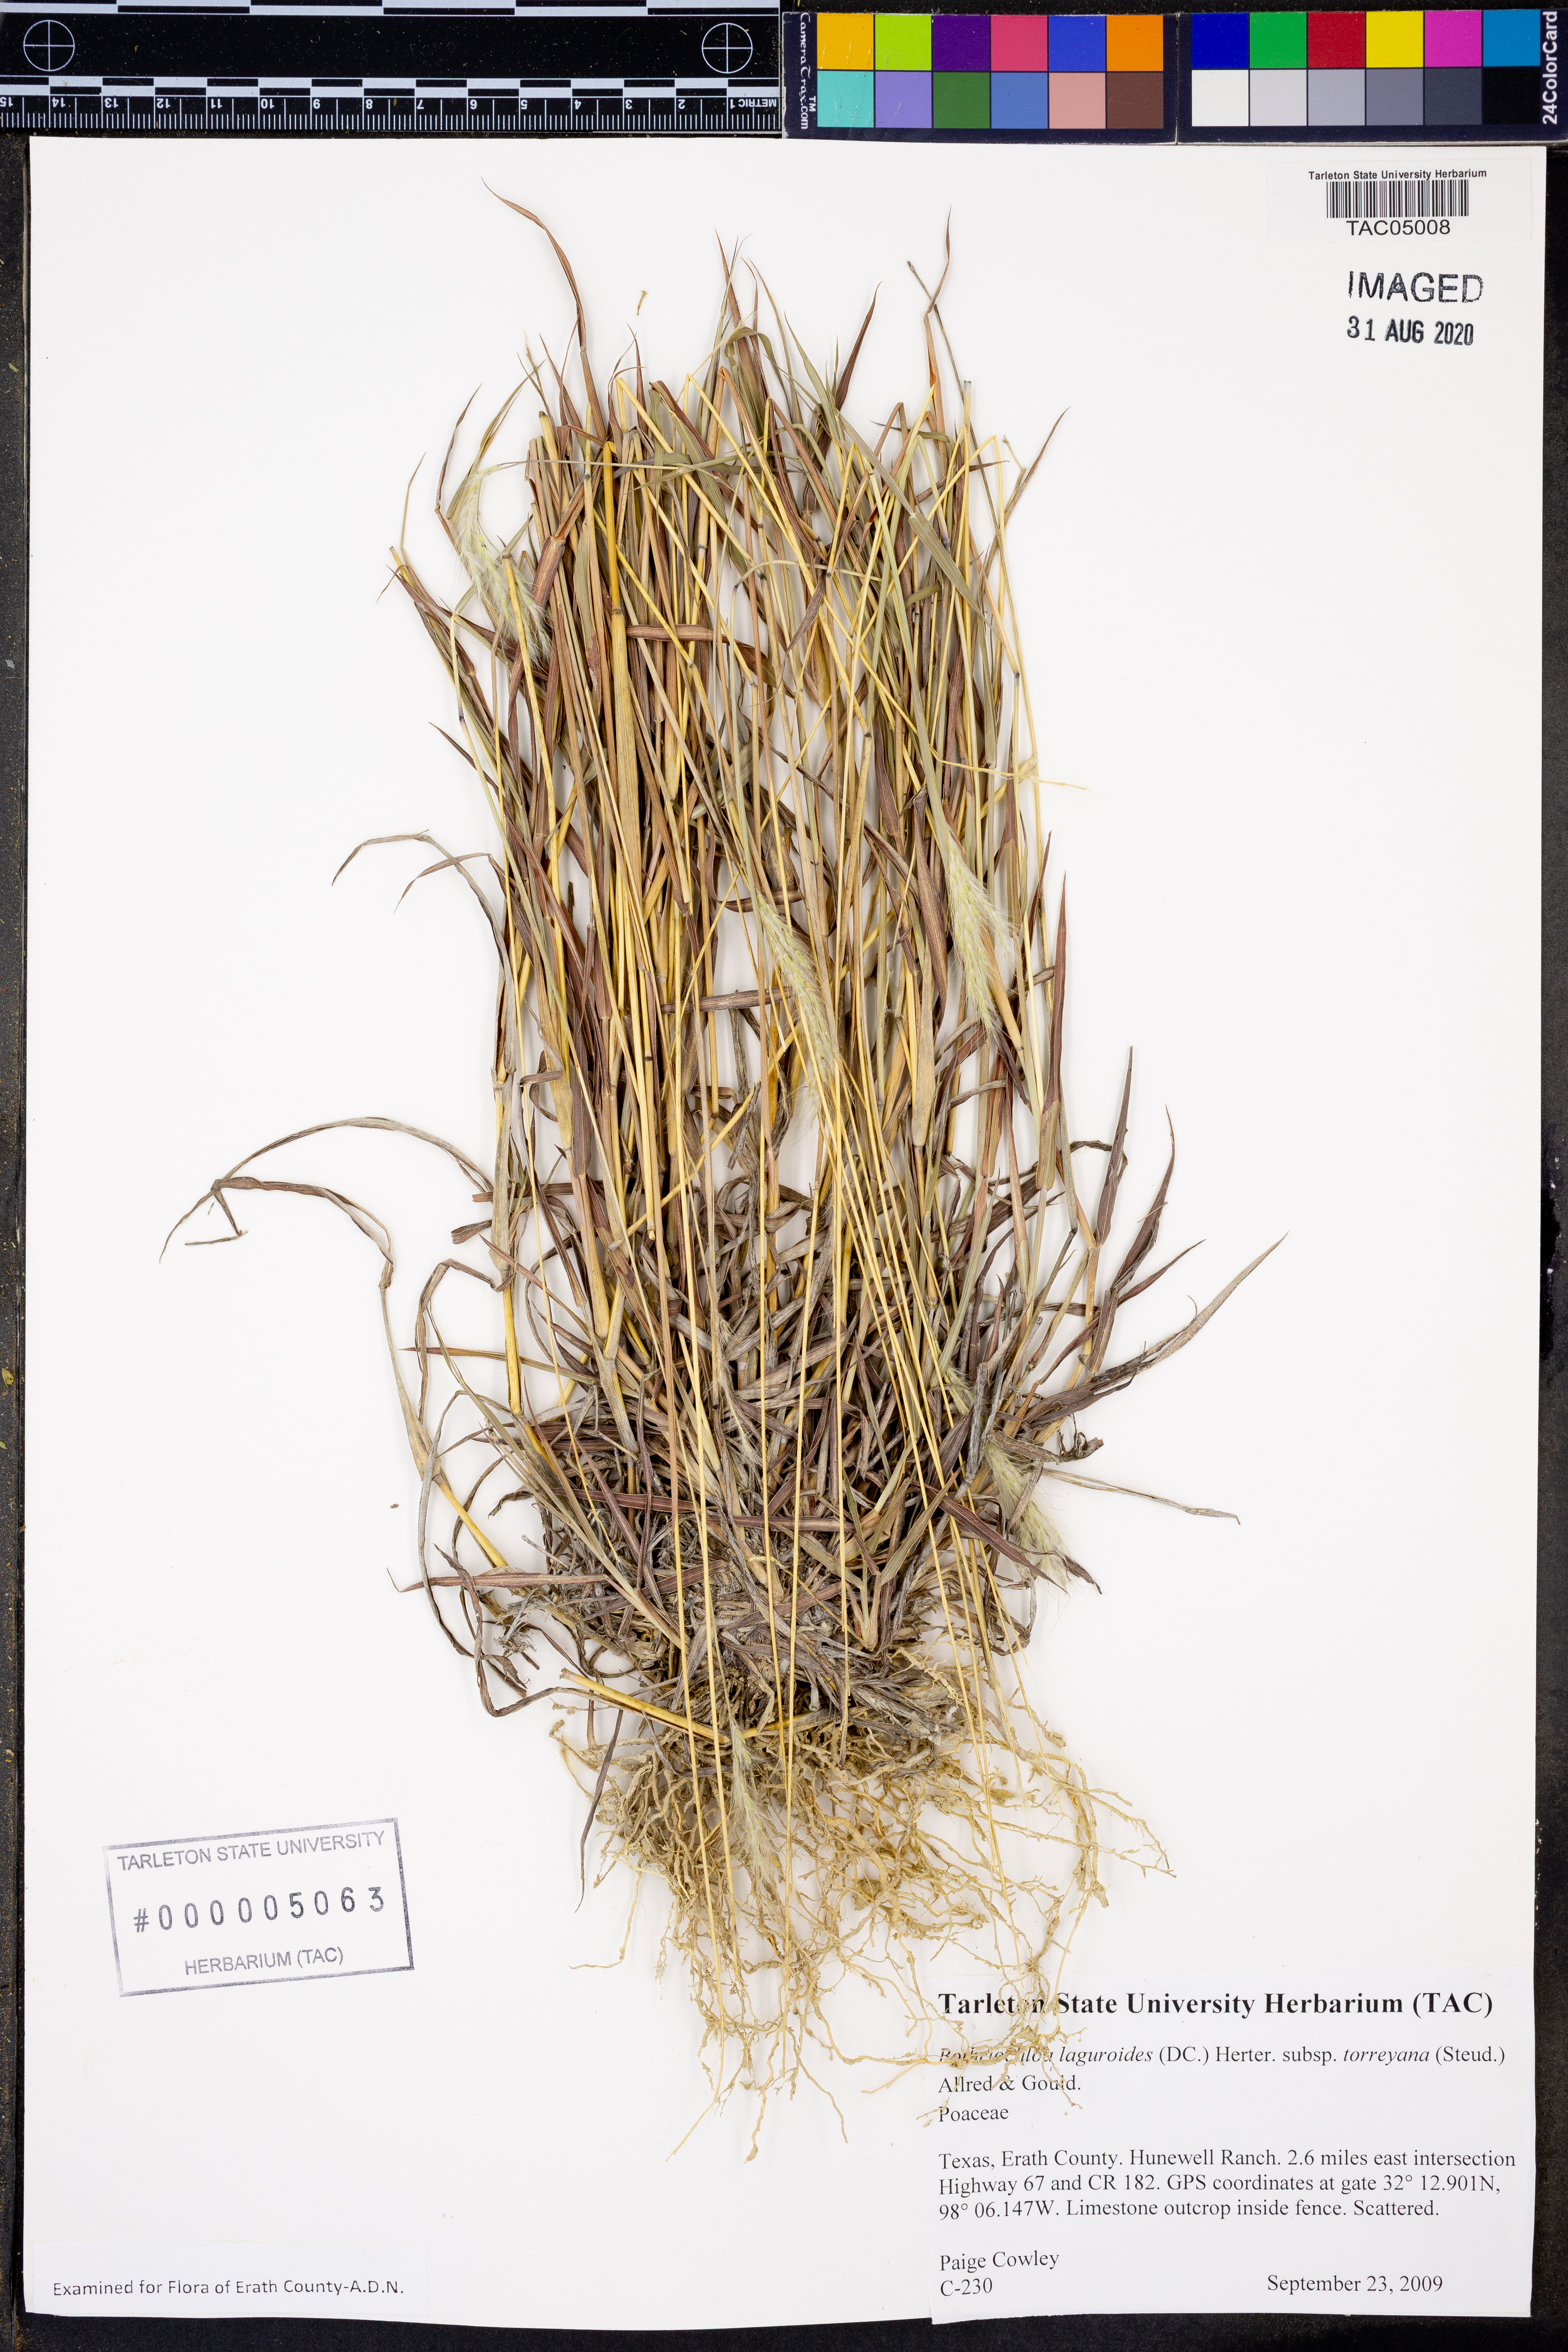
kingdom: Plantae
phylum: Tracheophyta
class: Liliopsida
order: Poales
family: Poaceae
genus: Bothriochloa
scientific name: Bothriochloa torreyana
